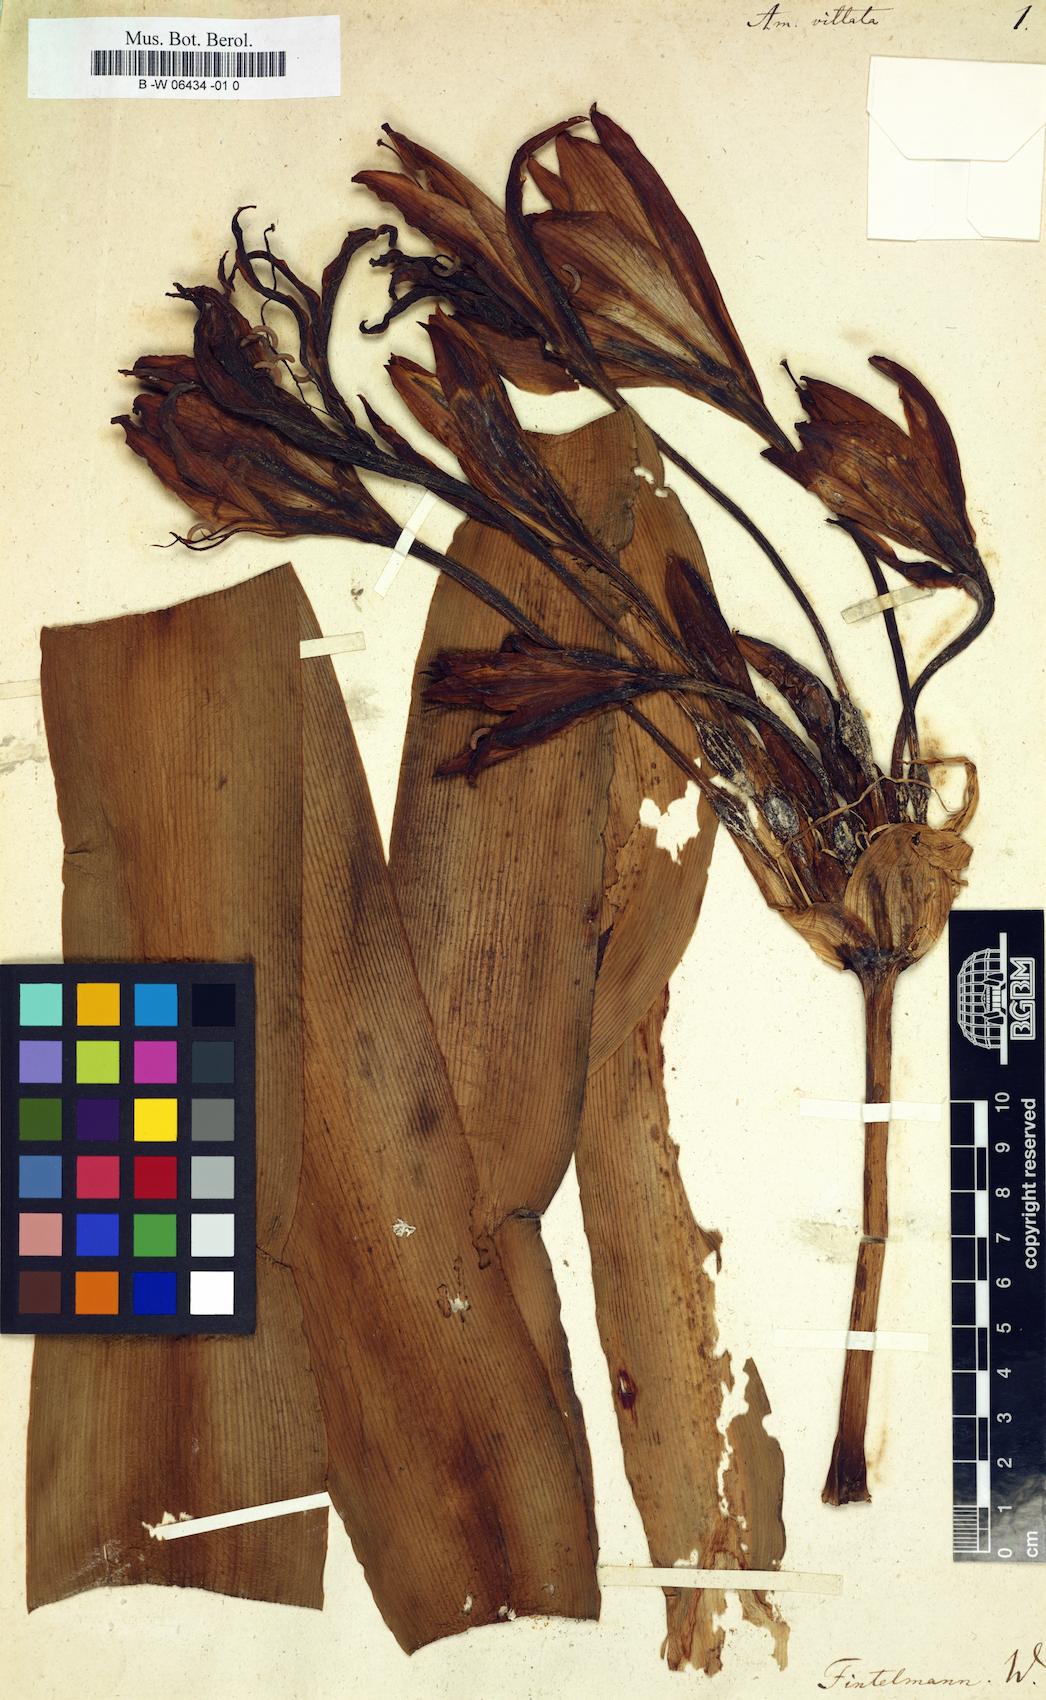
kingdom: Plantae
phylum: Tracheophyta
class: Liliopsida
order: Asparagales
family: Amaryllidaceae
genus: Hippeastrum
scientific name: Hippeastrum vittatum
